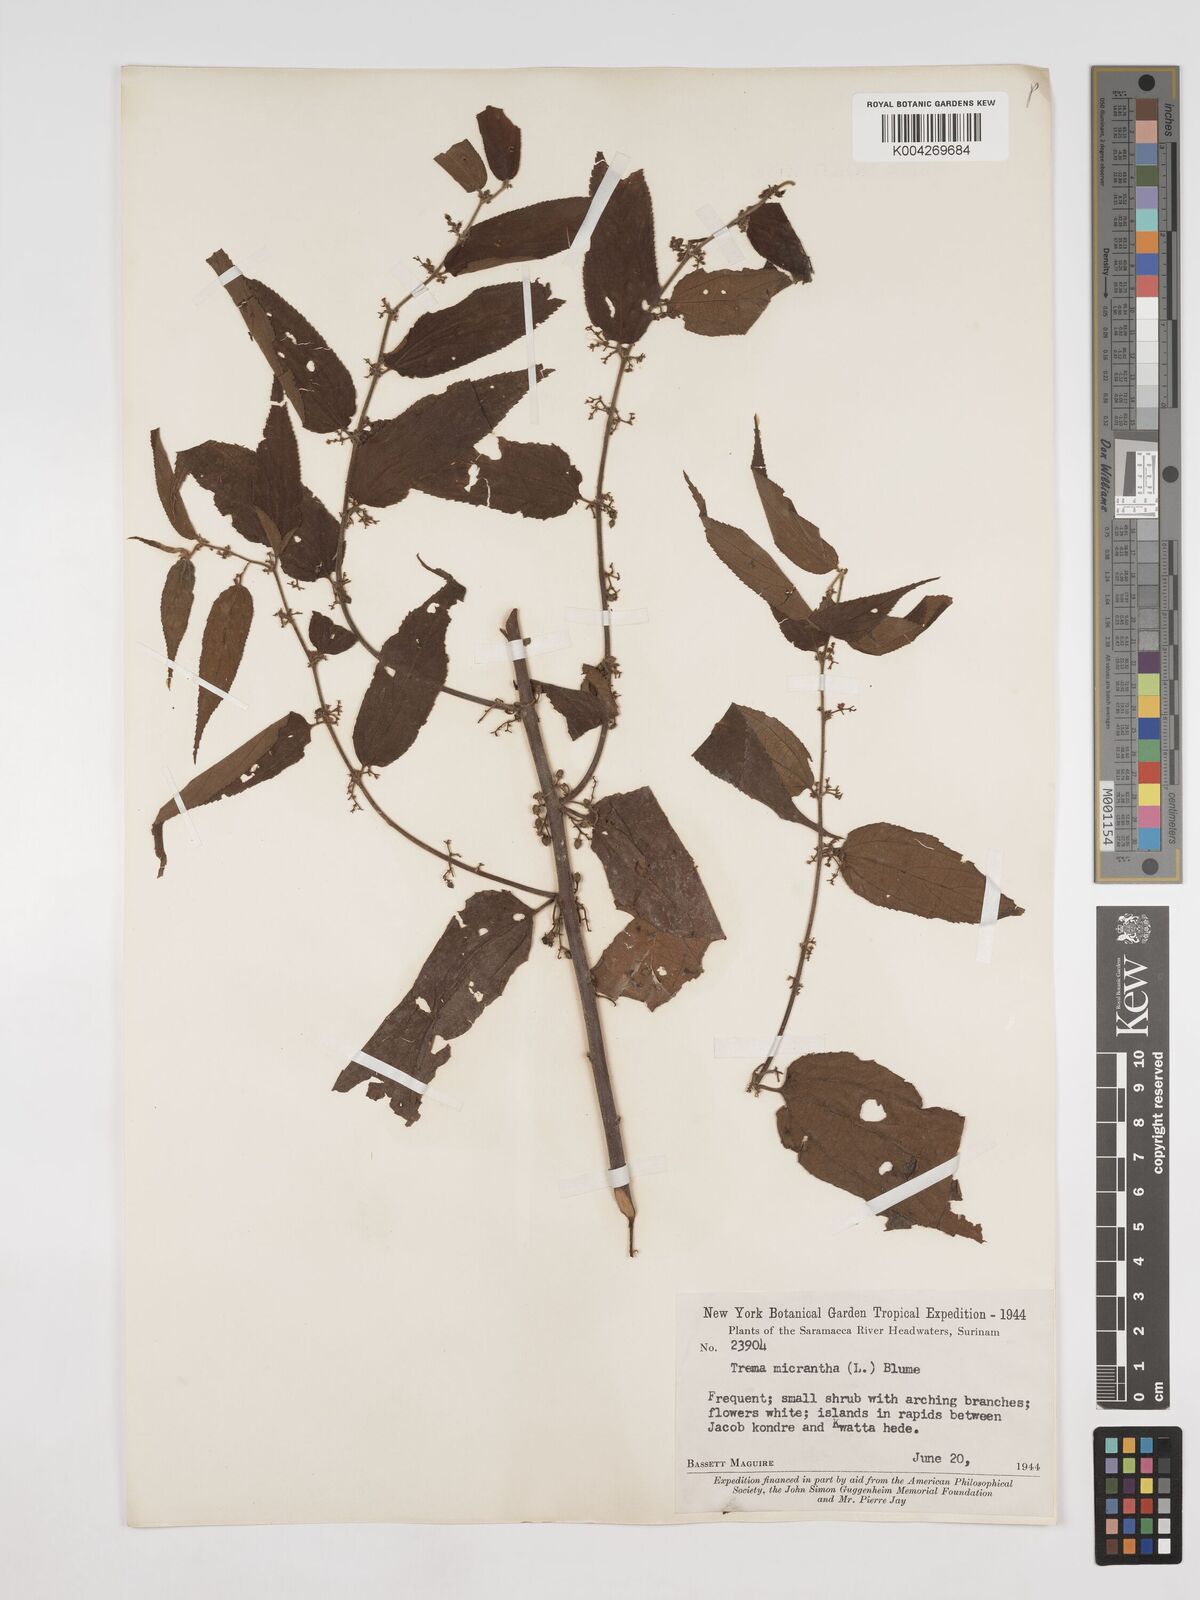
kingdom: Plantae
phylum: Tracheophyta
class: Magnoliopsida
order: Rosales
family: Cannabaceae
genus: Trema
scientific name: Trema micranthum
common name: Jamaican nettletree
